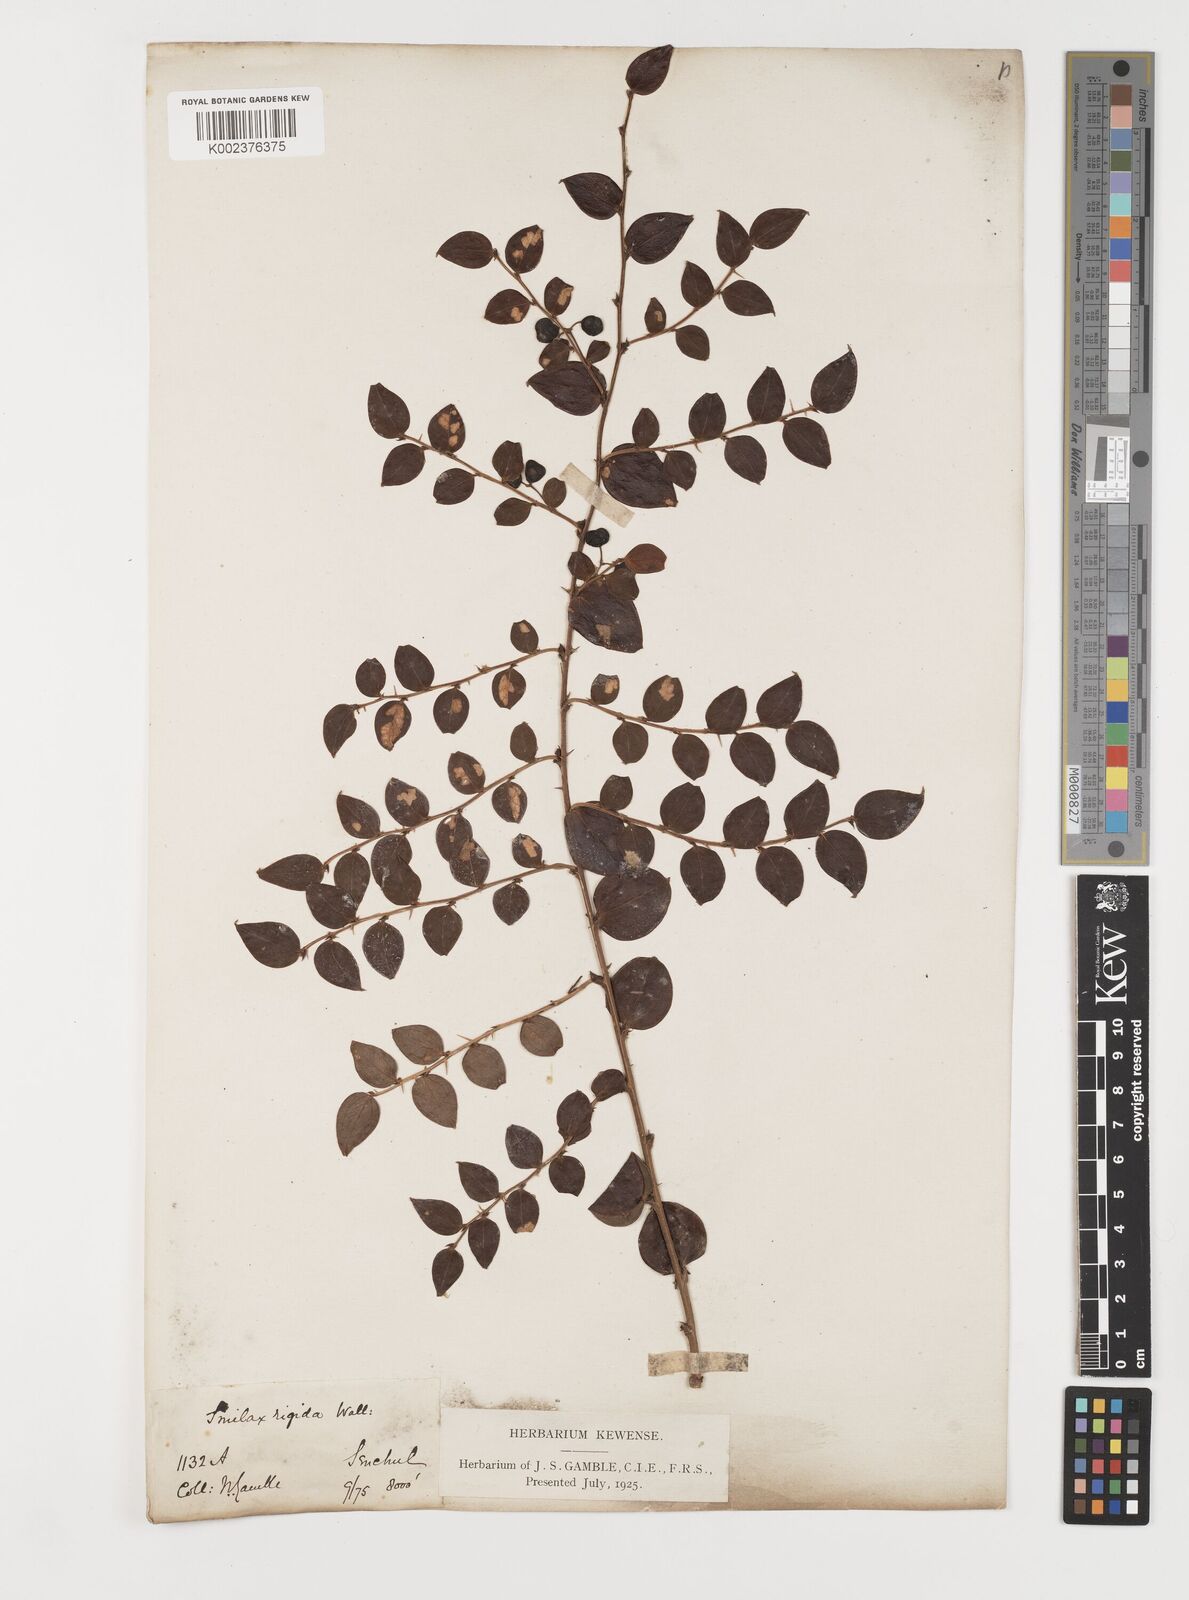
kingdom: Plantae
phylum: Tracheophyta
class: Liliopsida
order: Liliales
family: Smilacaceae
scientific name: Smilacaceae
